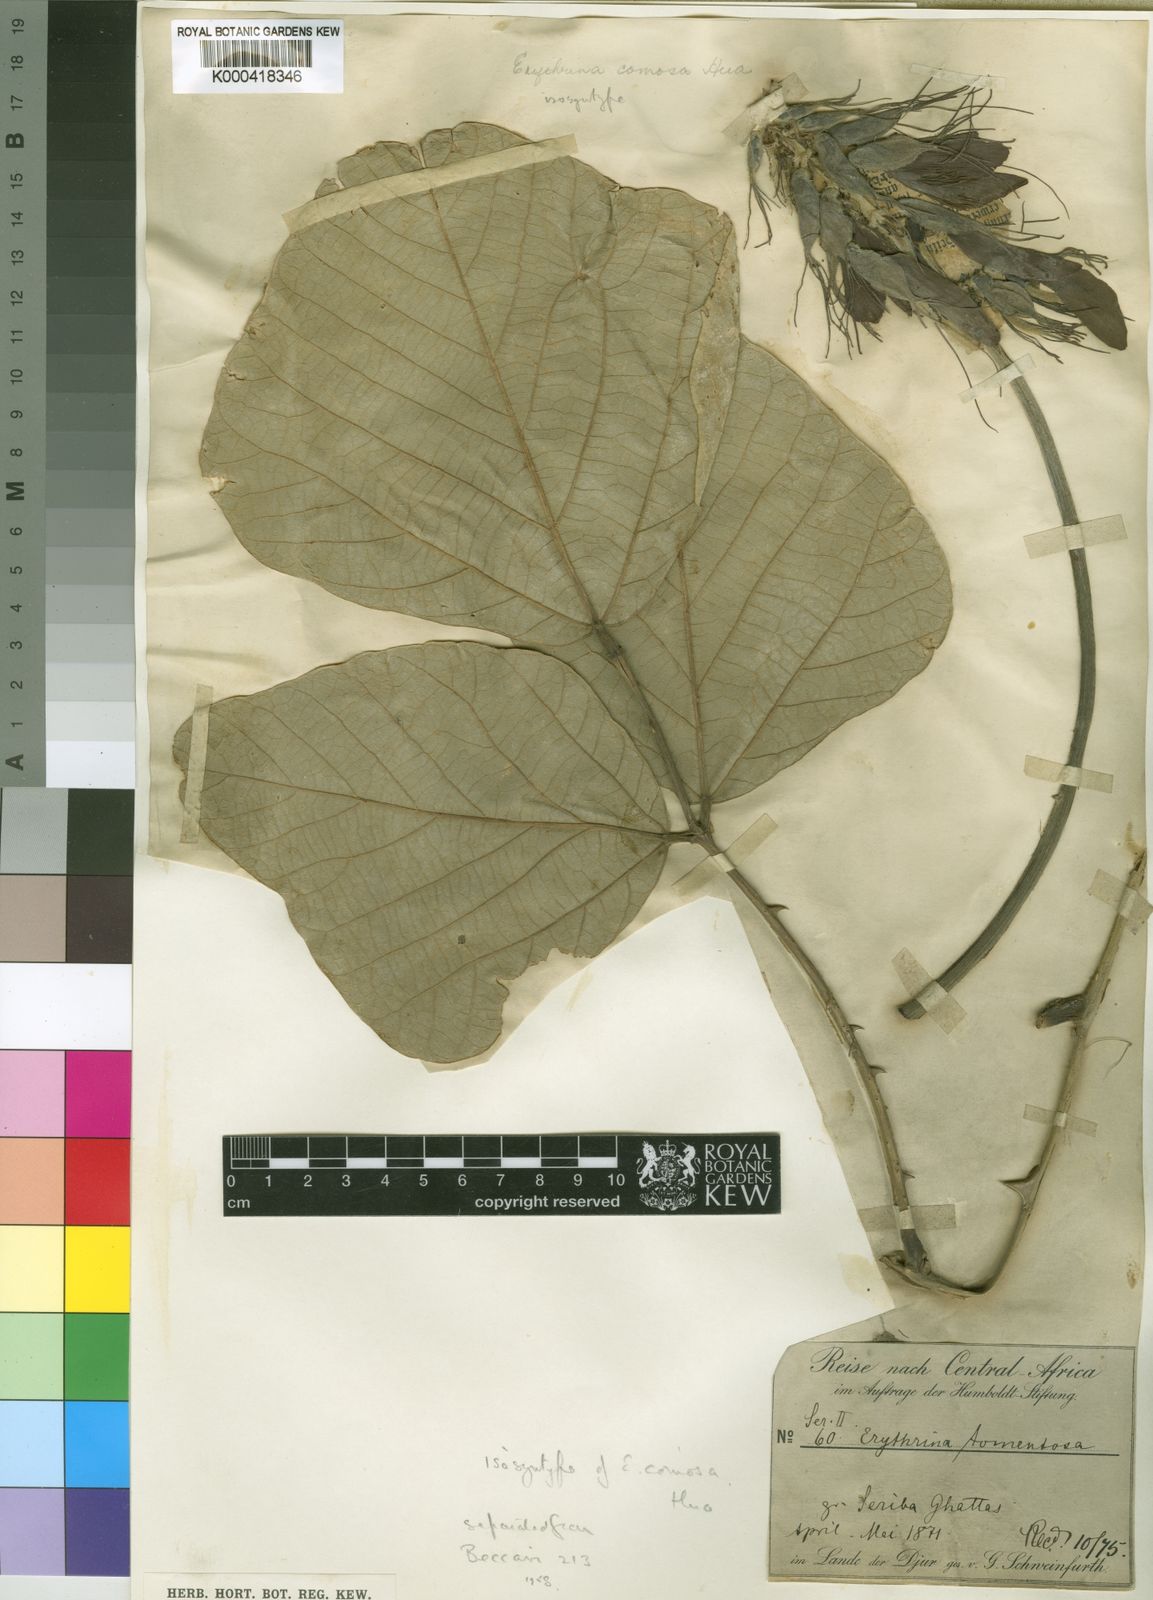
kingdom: Plantae
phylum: Tracheophyta
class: Magnoliopsida
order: Fabales
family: Fabaceae
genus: Erythrina
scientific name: Erythrina
